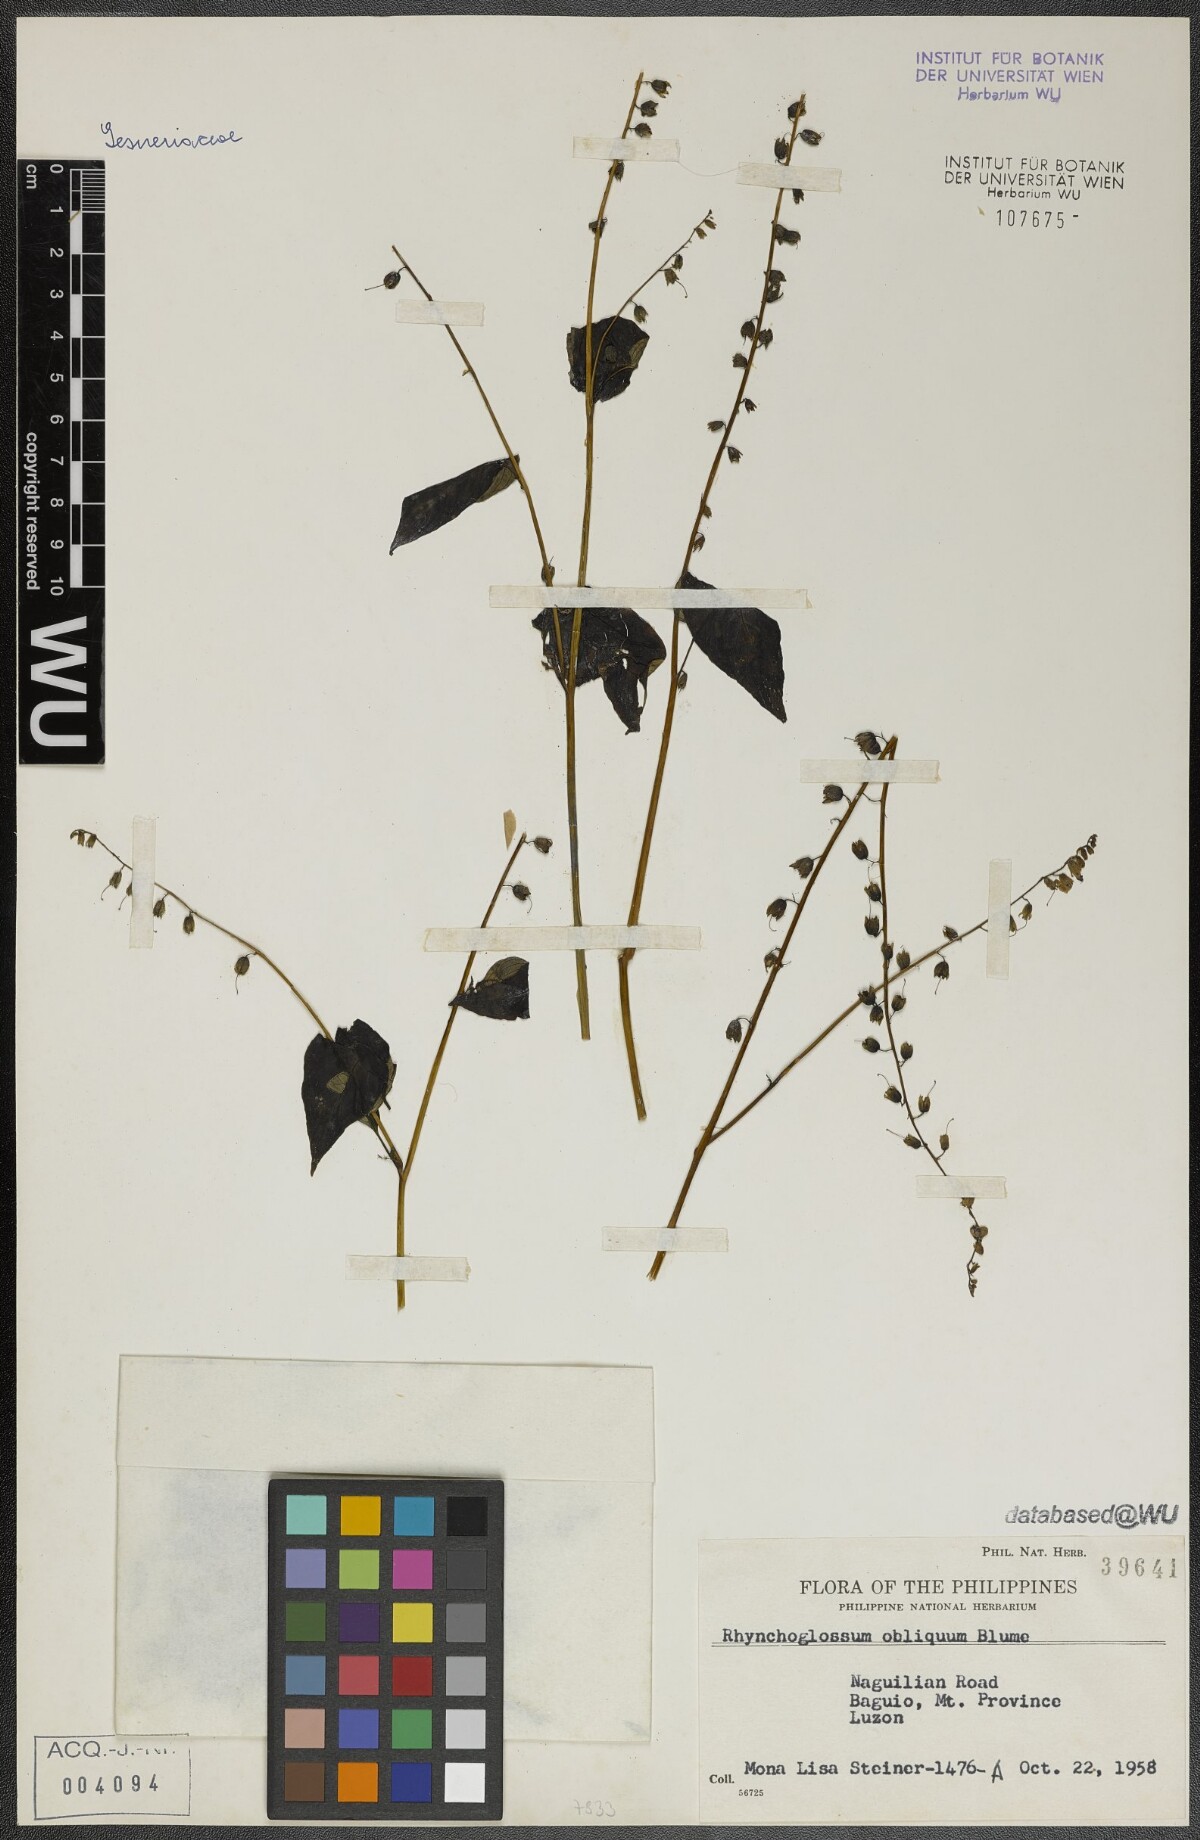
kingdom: Plantae
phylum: Tracheophyta
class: Magnoliopsida
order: Lamiales
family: Gesneriaceae
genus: Rhynchoglossum
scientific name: Rhynchoglossum obliquum
